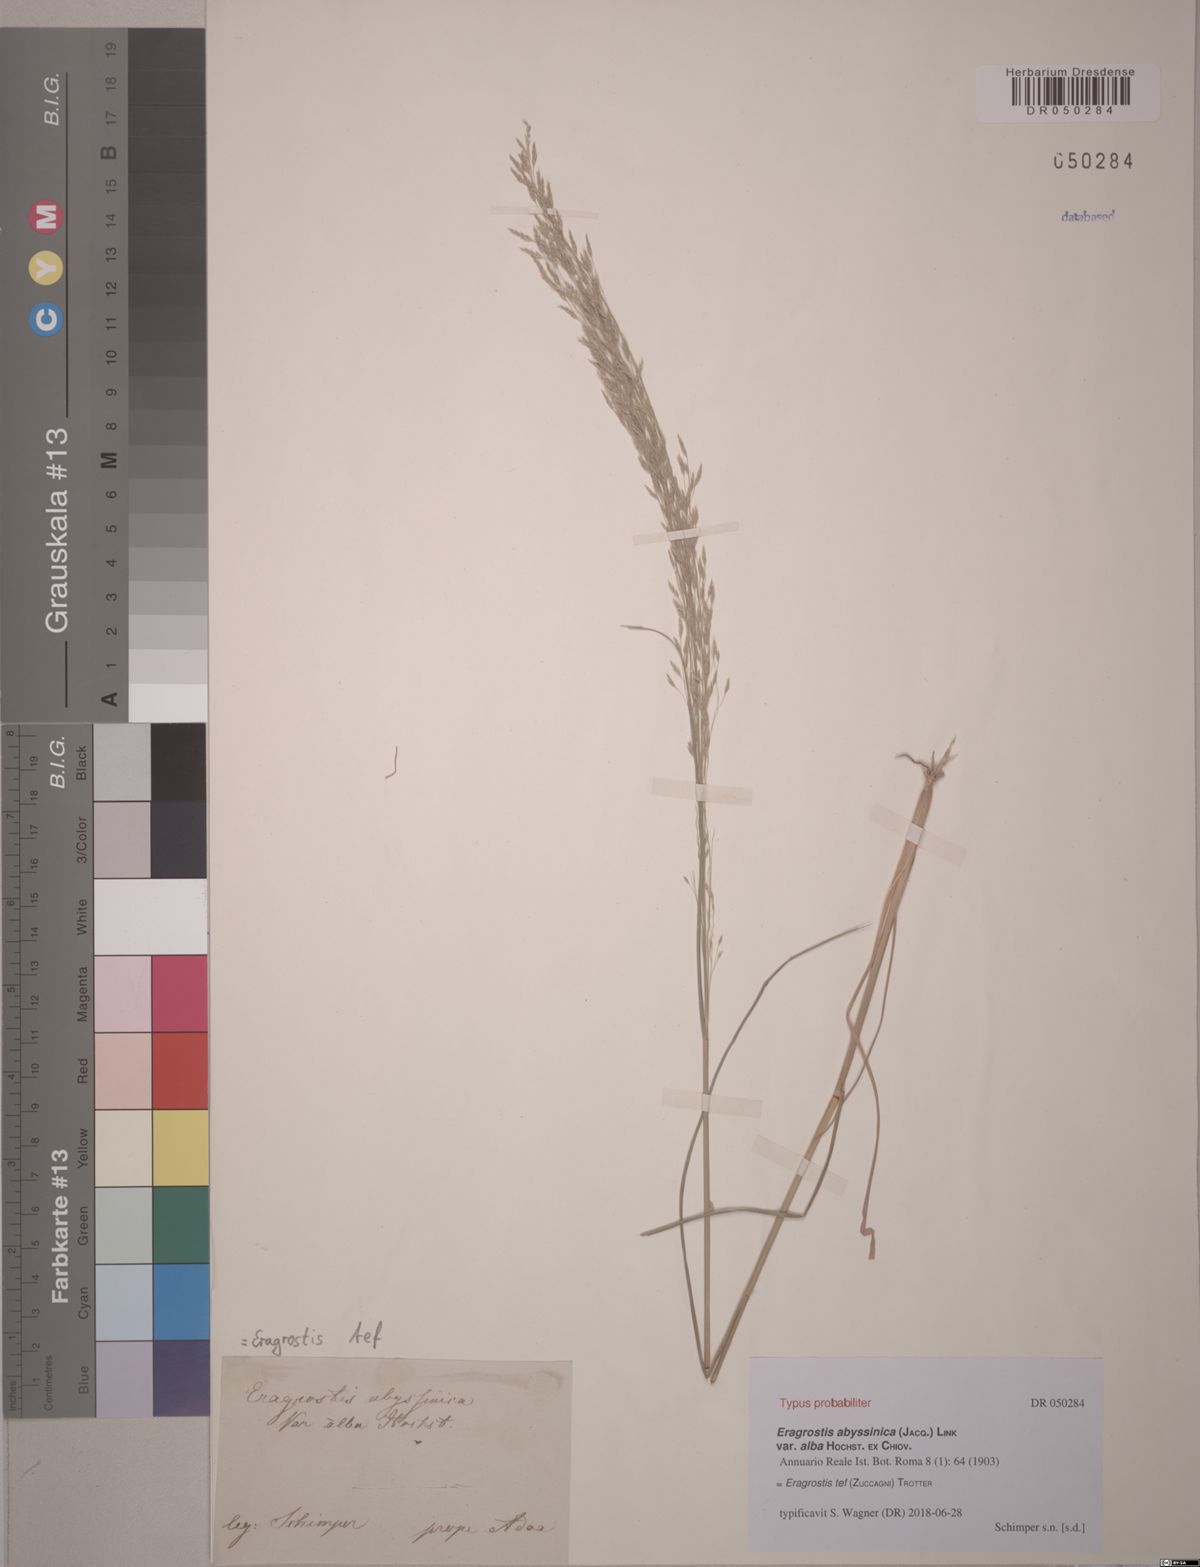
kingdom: Plantae
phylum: Tracheophyta
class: Liliopsida
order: Poales
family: Poaceae
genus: Eragrostis
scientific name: Eragrostis tef
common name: Teff
